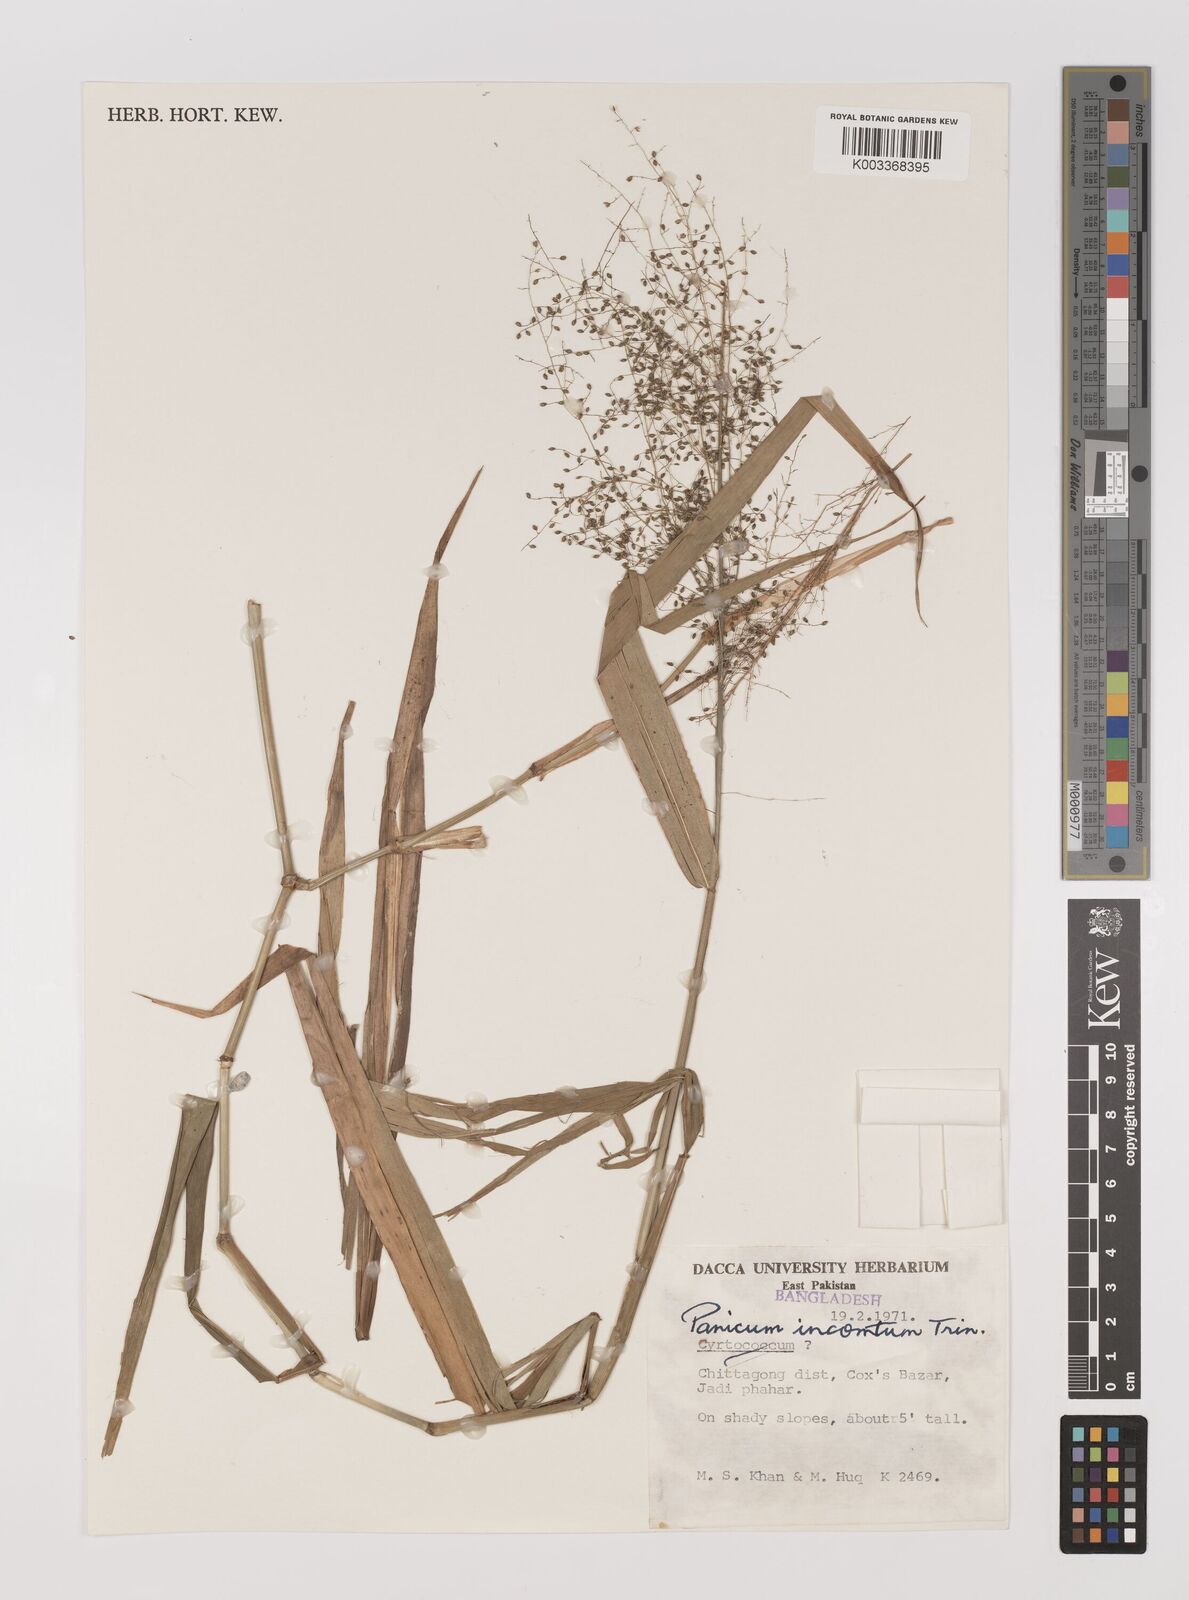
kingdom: Plantae
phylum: Tracheophyta
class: Liliopsida
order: Poales
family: Poaceae
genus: Panicum
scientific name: Panicum incomtum
